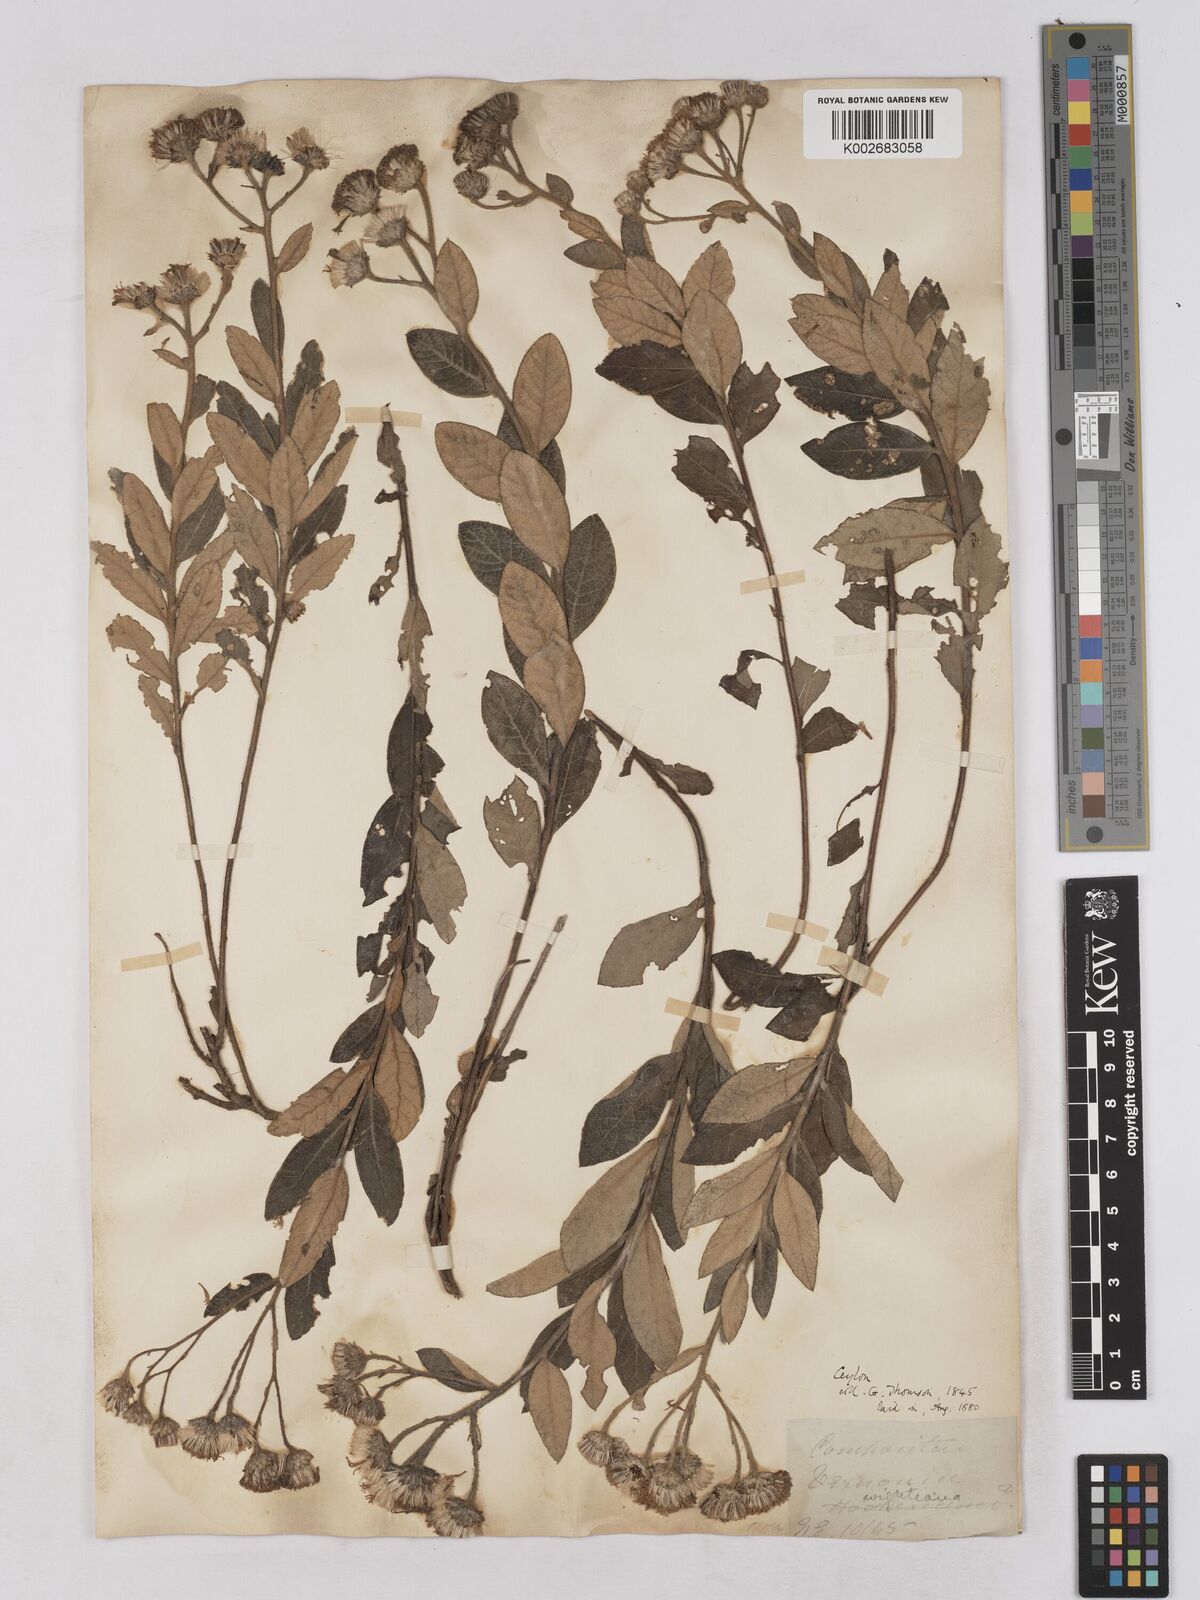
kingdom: Plantae
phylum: Tracheophyta
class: Magnoliopsida
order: Asterales
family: Asteraceae
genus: Uniyala
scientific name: Uniyala wightiana
